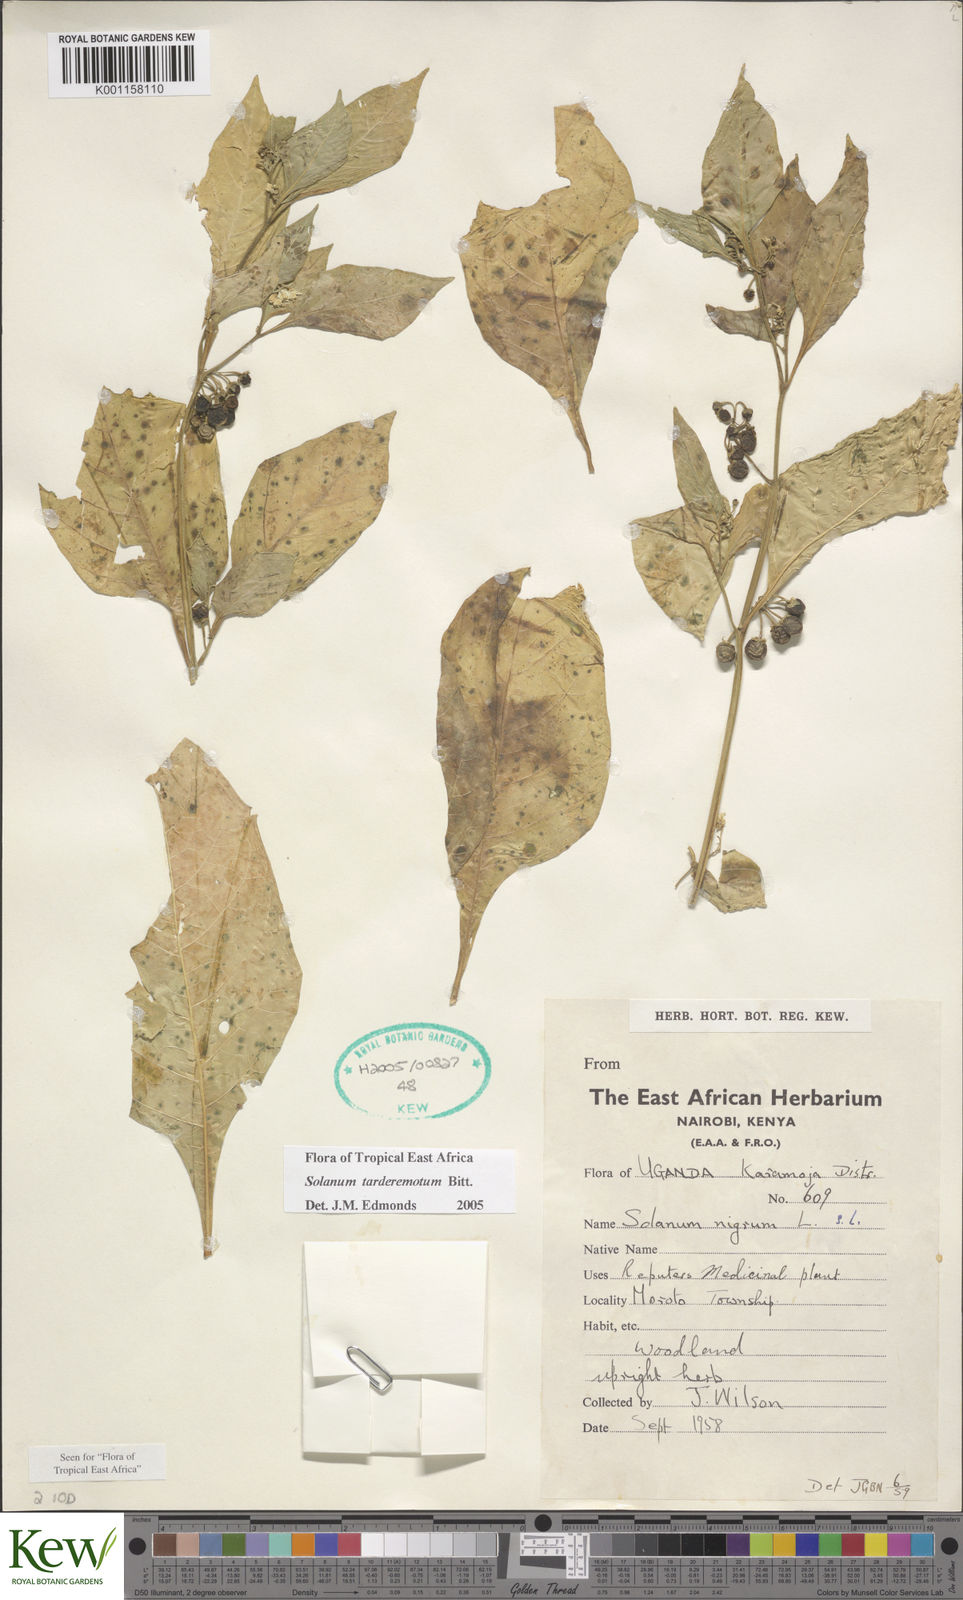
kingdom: Plantae
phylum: Tracheophyta
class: Magnoliopsida
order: Solanales
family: Solanaceae
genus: Solanum
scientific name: Solanum tarderemotum
